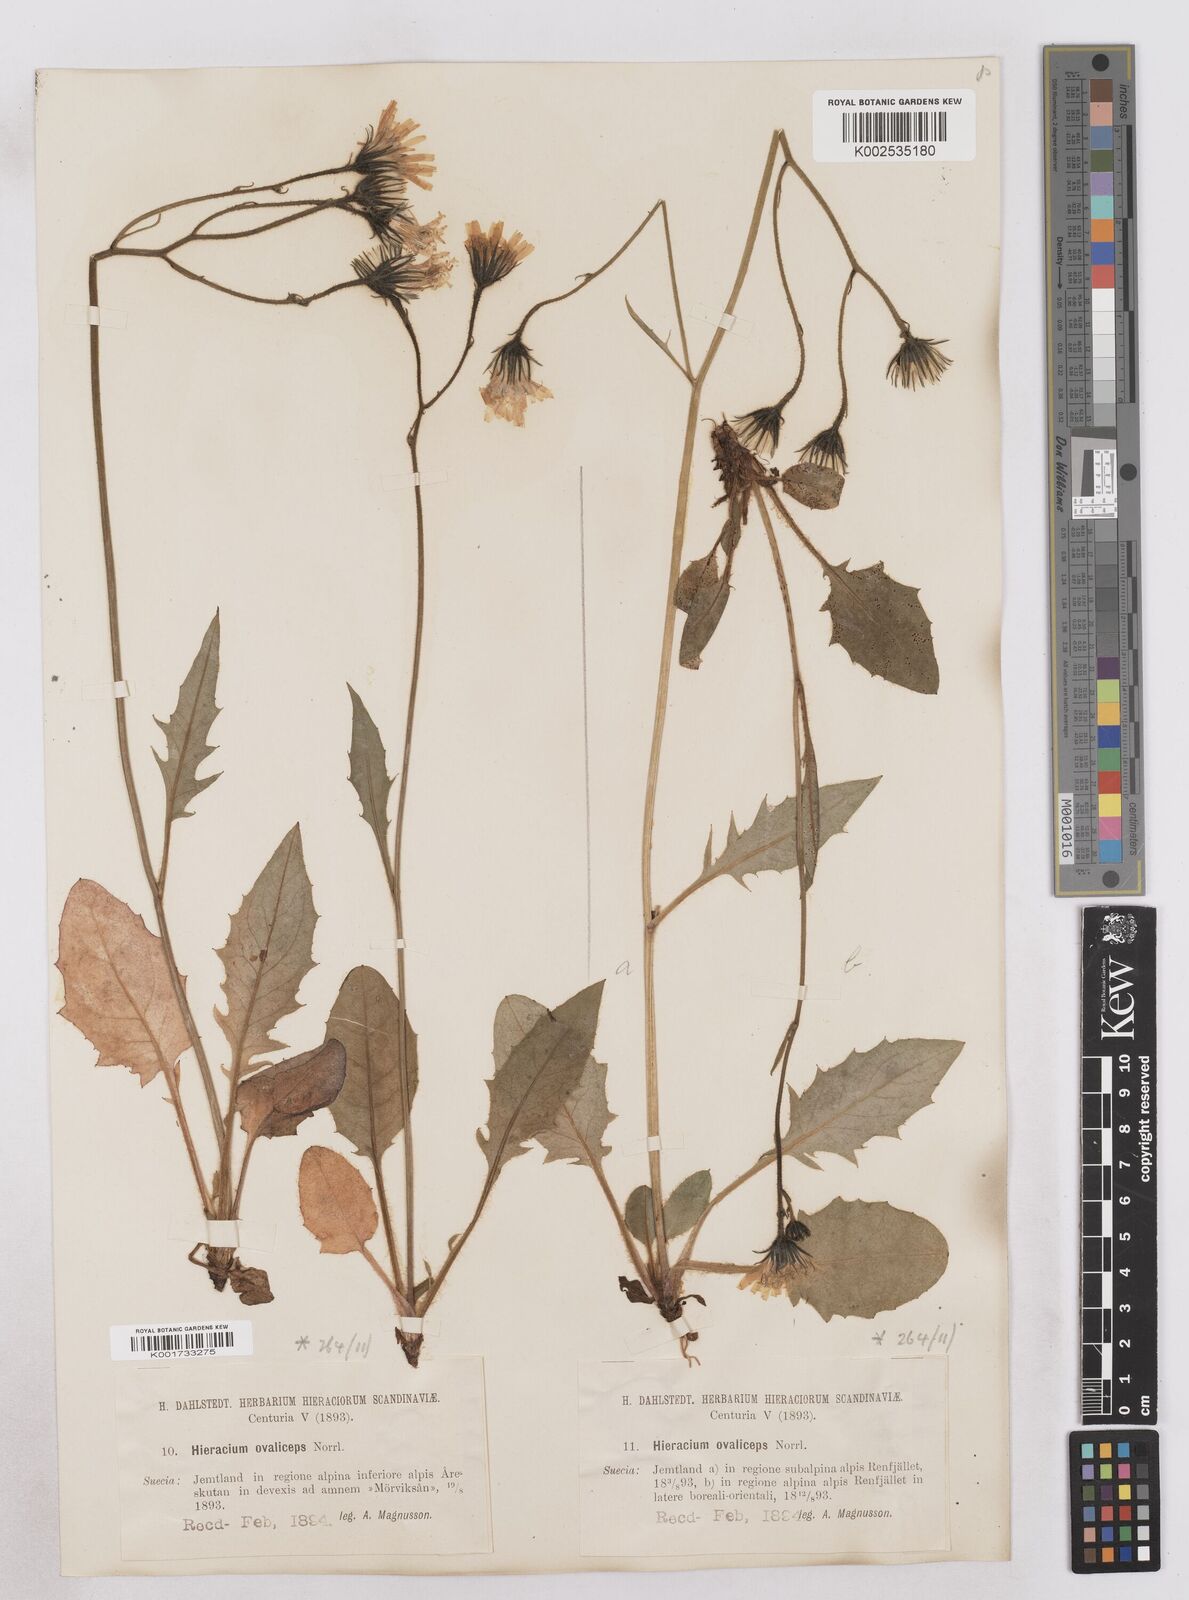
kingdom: Plantae
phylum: Tracheophyta
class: Magnoliopsida
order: Asterales
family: Asteraceae
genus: Hieracium
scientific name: Hieracium ovaliceps
